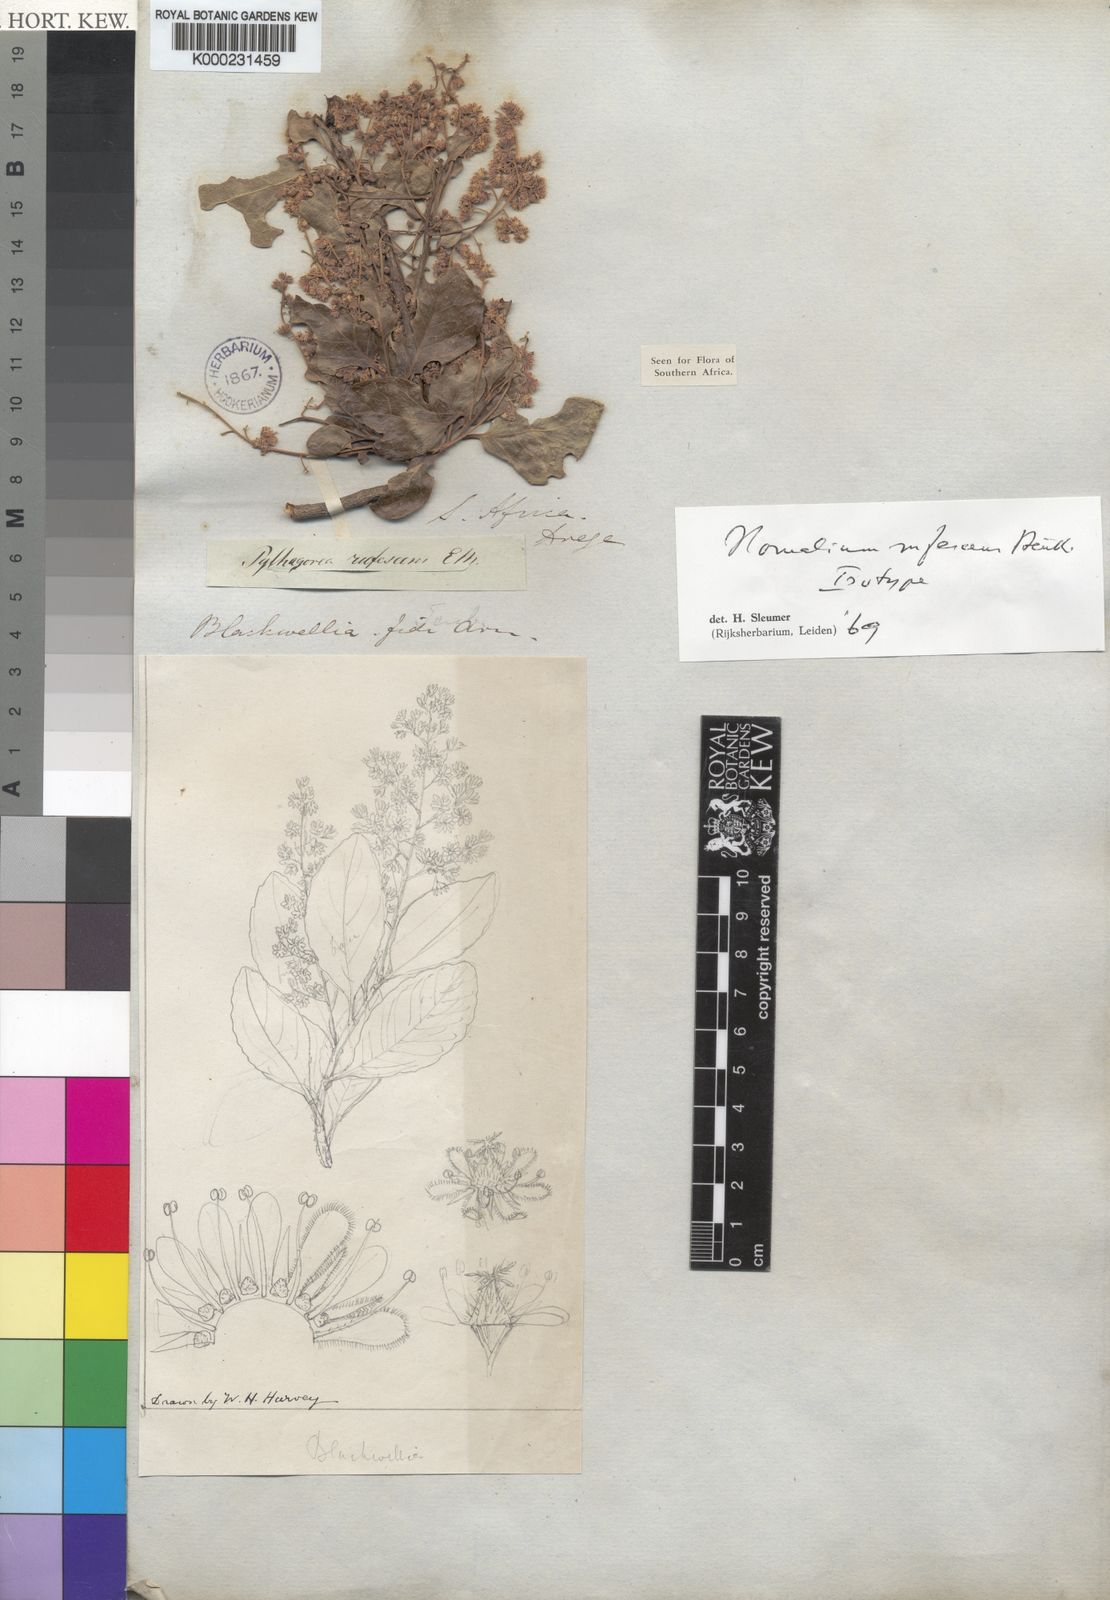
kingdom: Plantae
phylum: Tracheophyta
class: Magnoliopsida
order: Malpighiales
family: Salicaceae
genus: Homalium
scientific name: Homalium rufescens
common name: Small-leaved brown-ironwood
